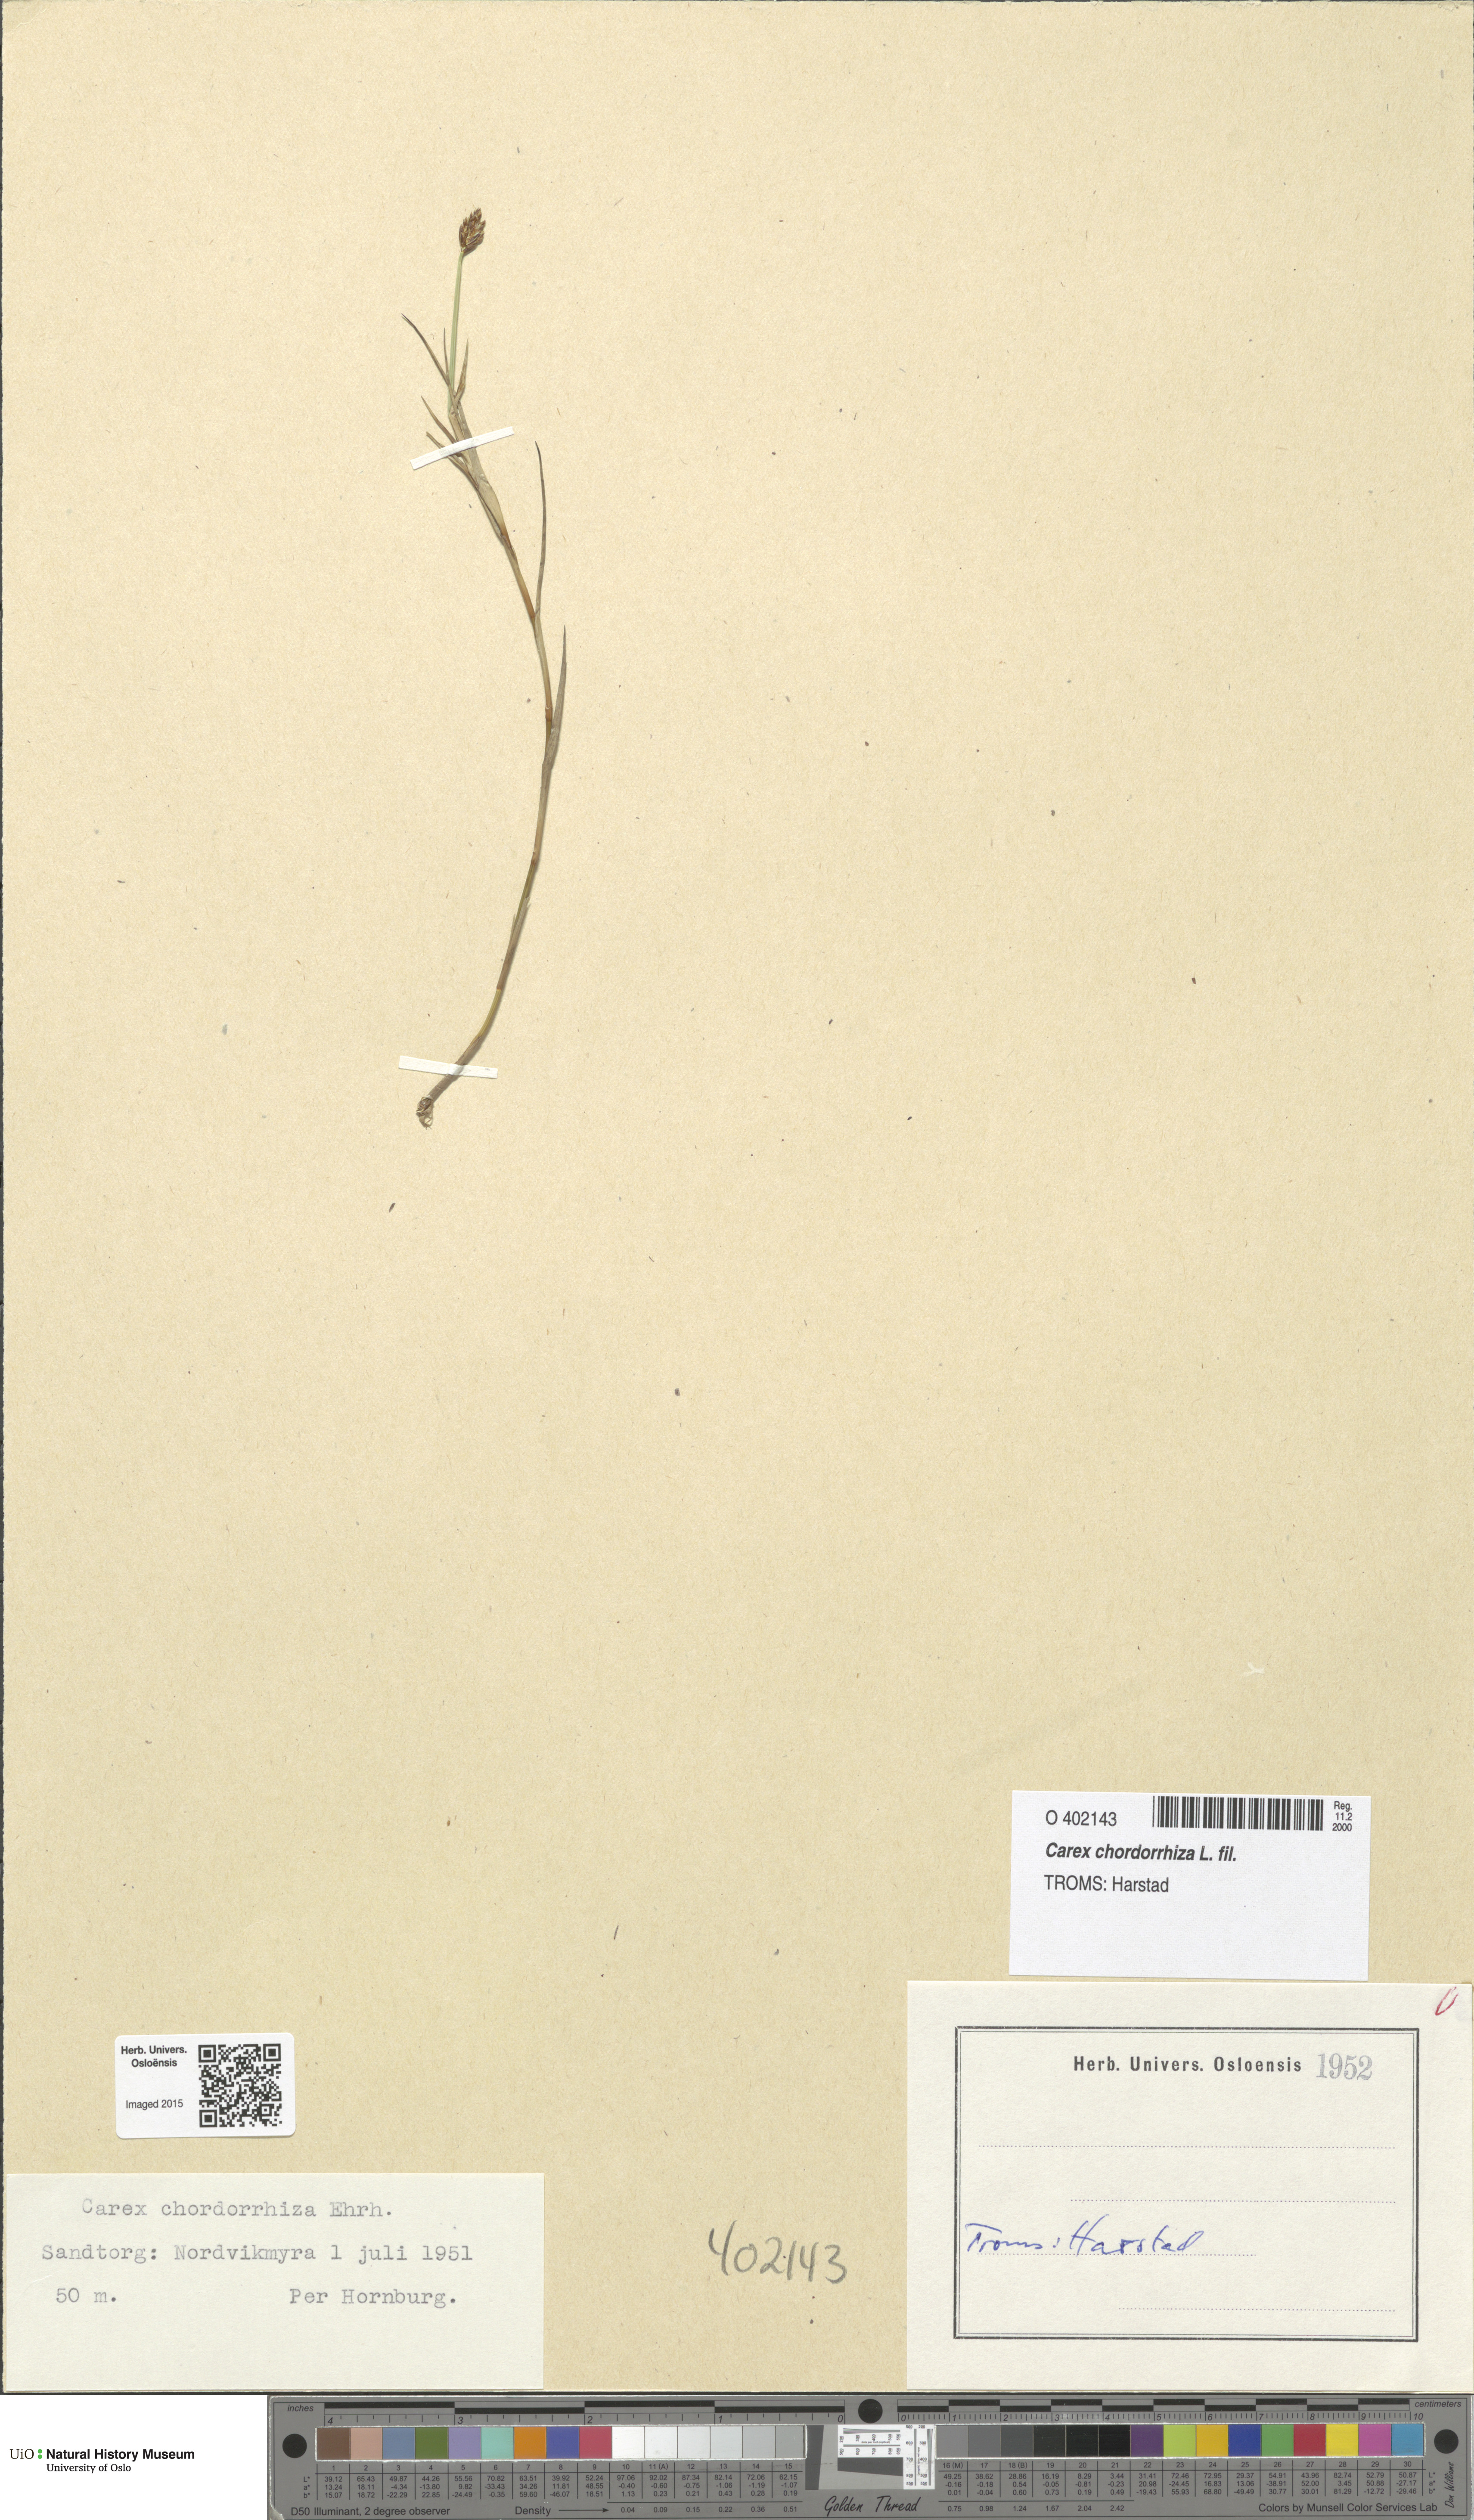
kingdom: Plantae
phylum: Tracheophyta
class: Liliopsida
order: Poales
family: Cyperaceae
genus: Carex
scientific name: Carex chordorrhiza
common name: String sedge
